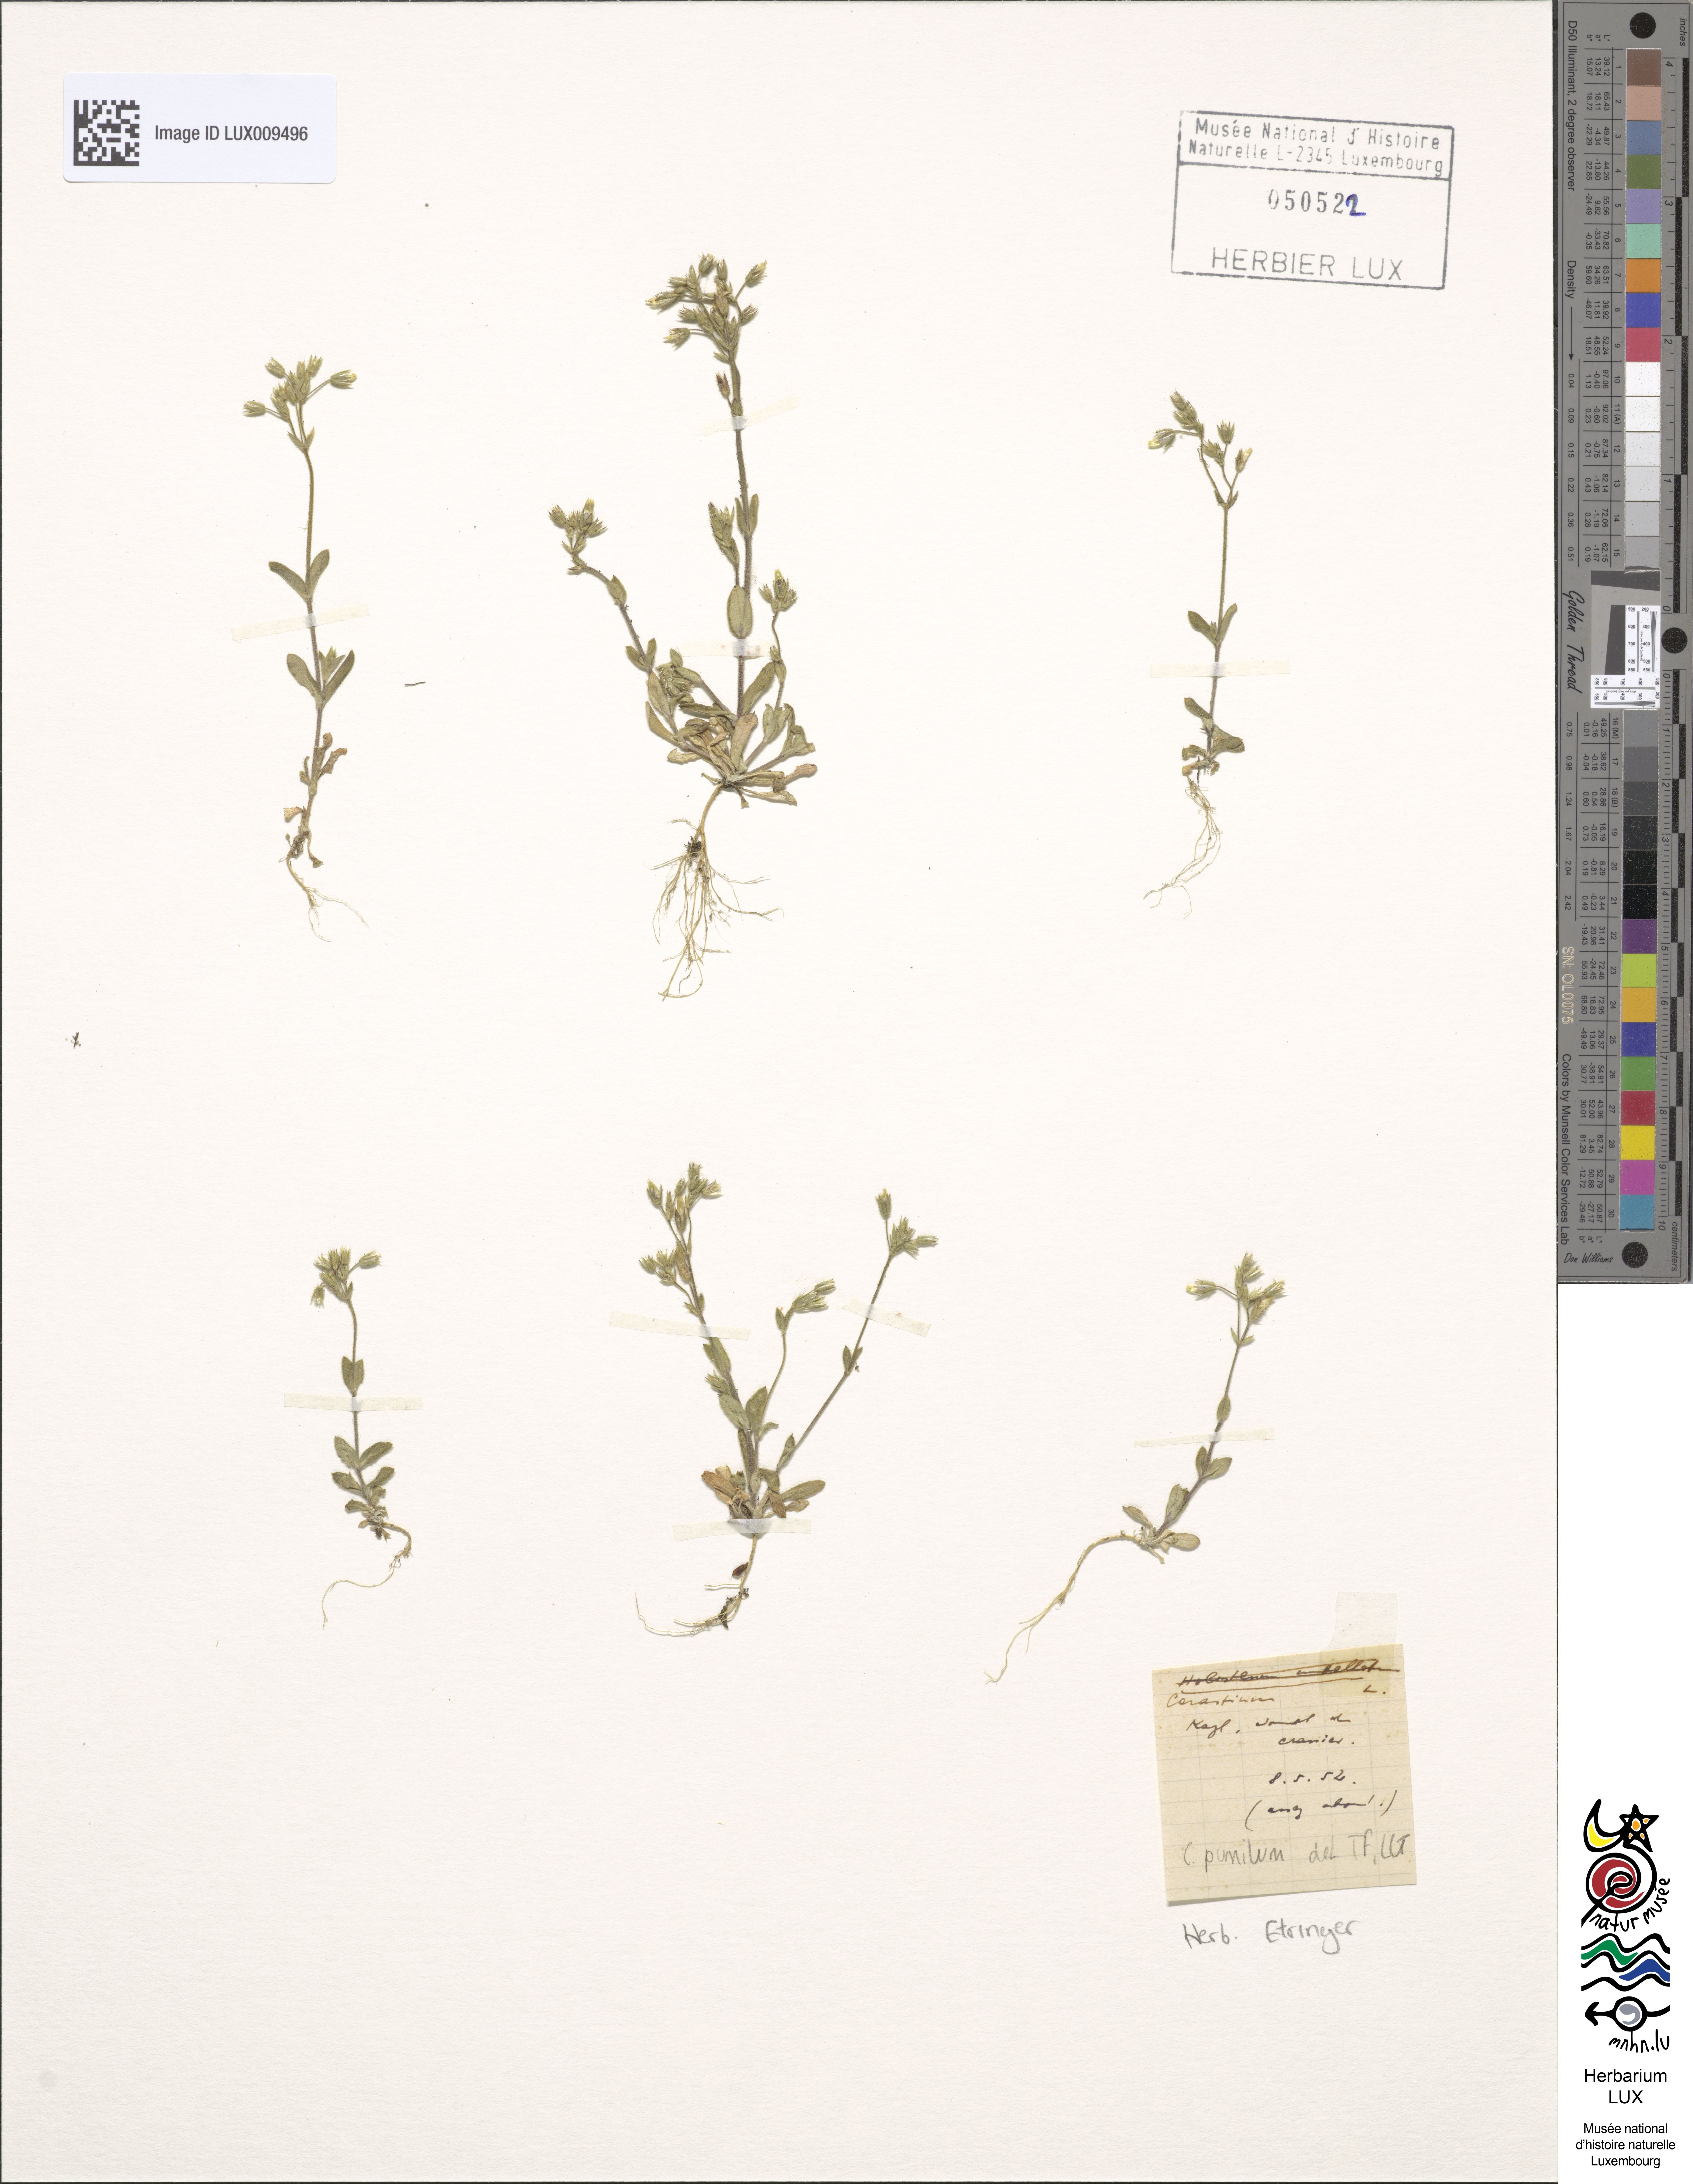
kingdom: Plantae
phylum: Tracheophyta
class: Magnoliopsida
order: Caryophyllales
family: Caryophyllaceae
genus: Cerastium
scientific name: Cerastium pumilum
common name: Dwarf mouse-ear
